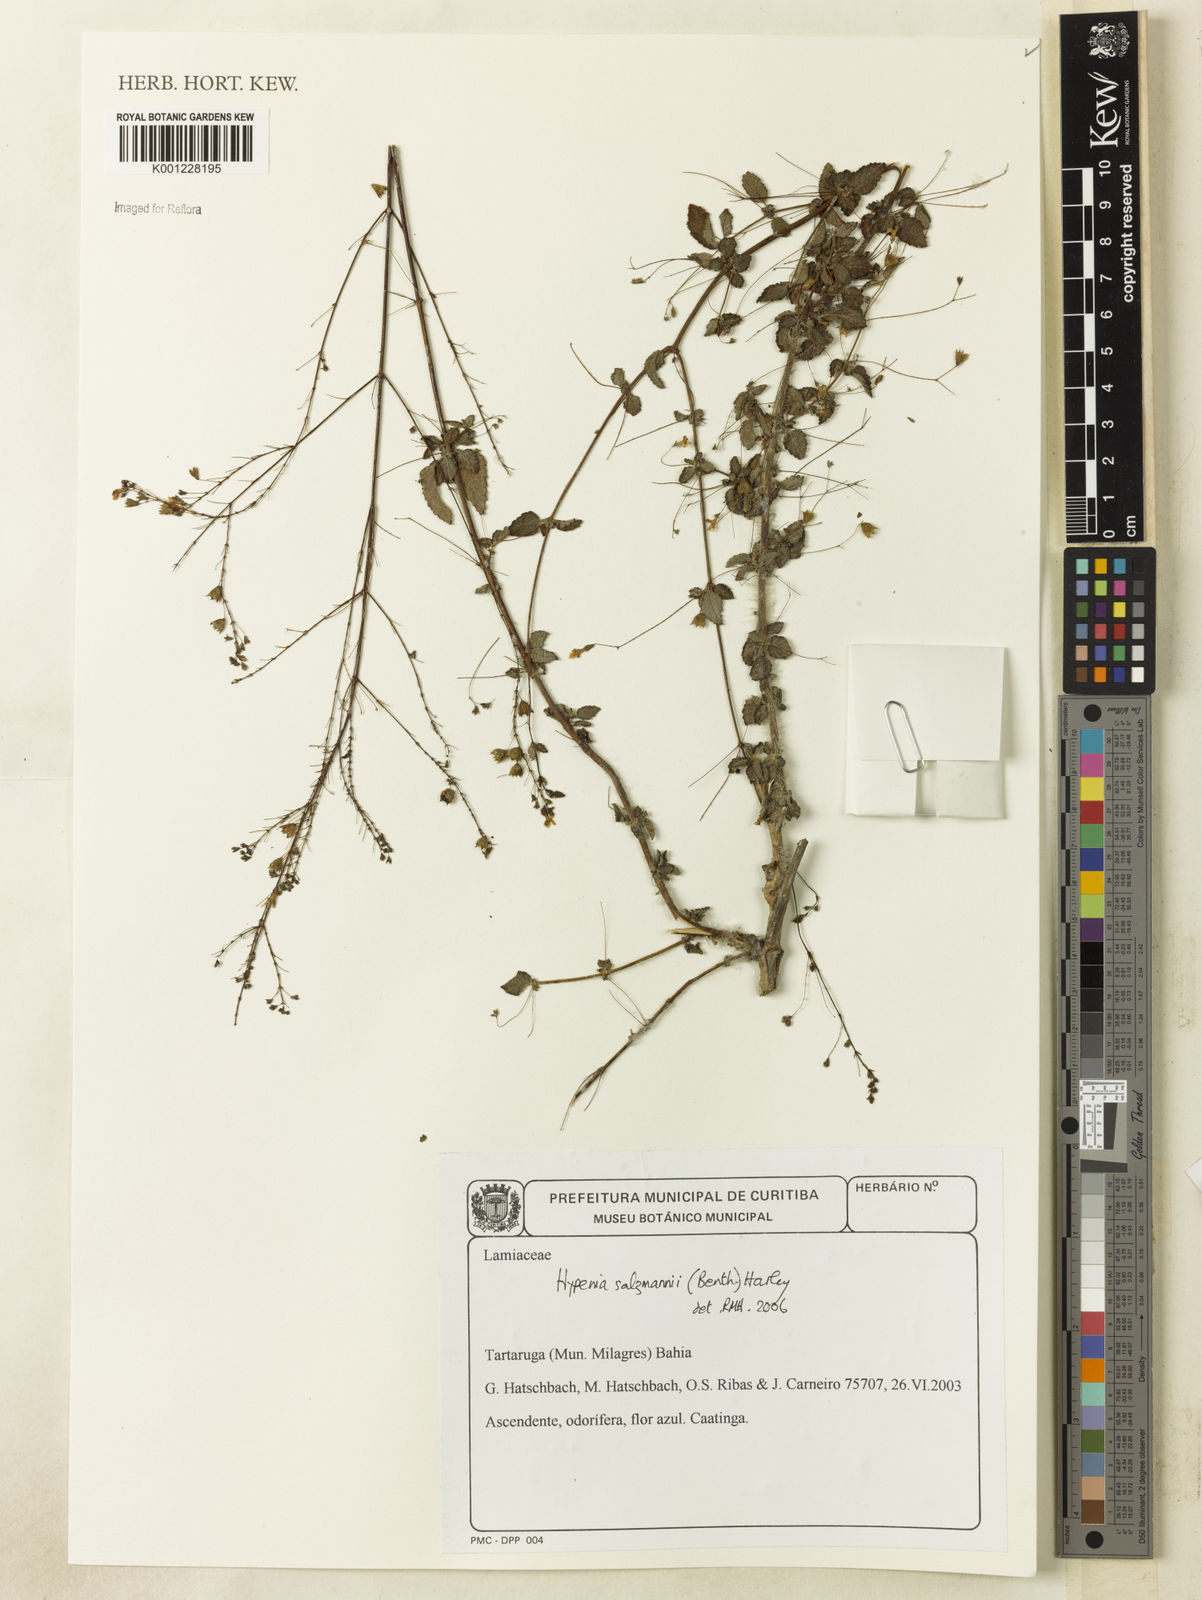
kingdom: Plantae
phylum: Tracheophyta
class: Magnoliopsida
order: Lamiales
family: Lamiaceae
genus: Hypenia
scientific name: Hypenia salzmannii
